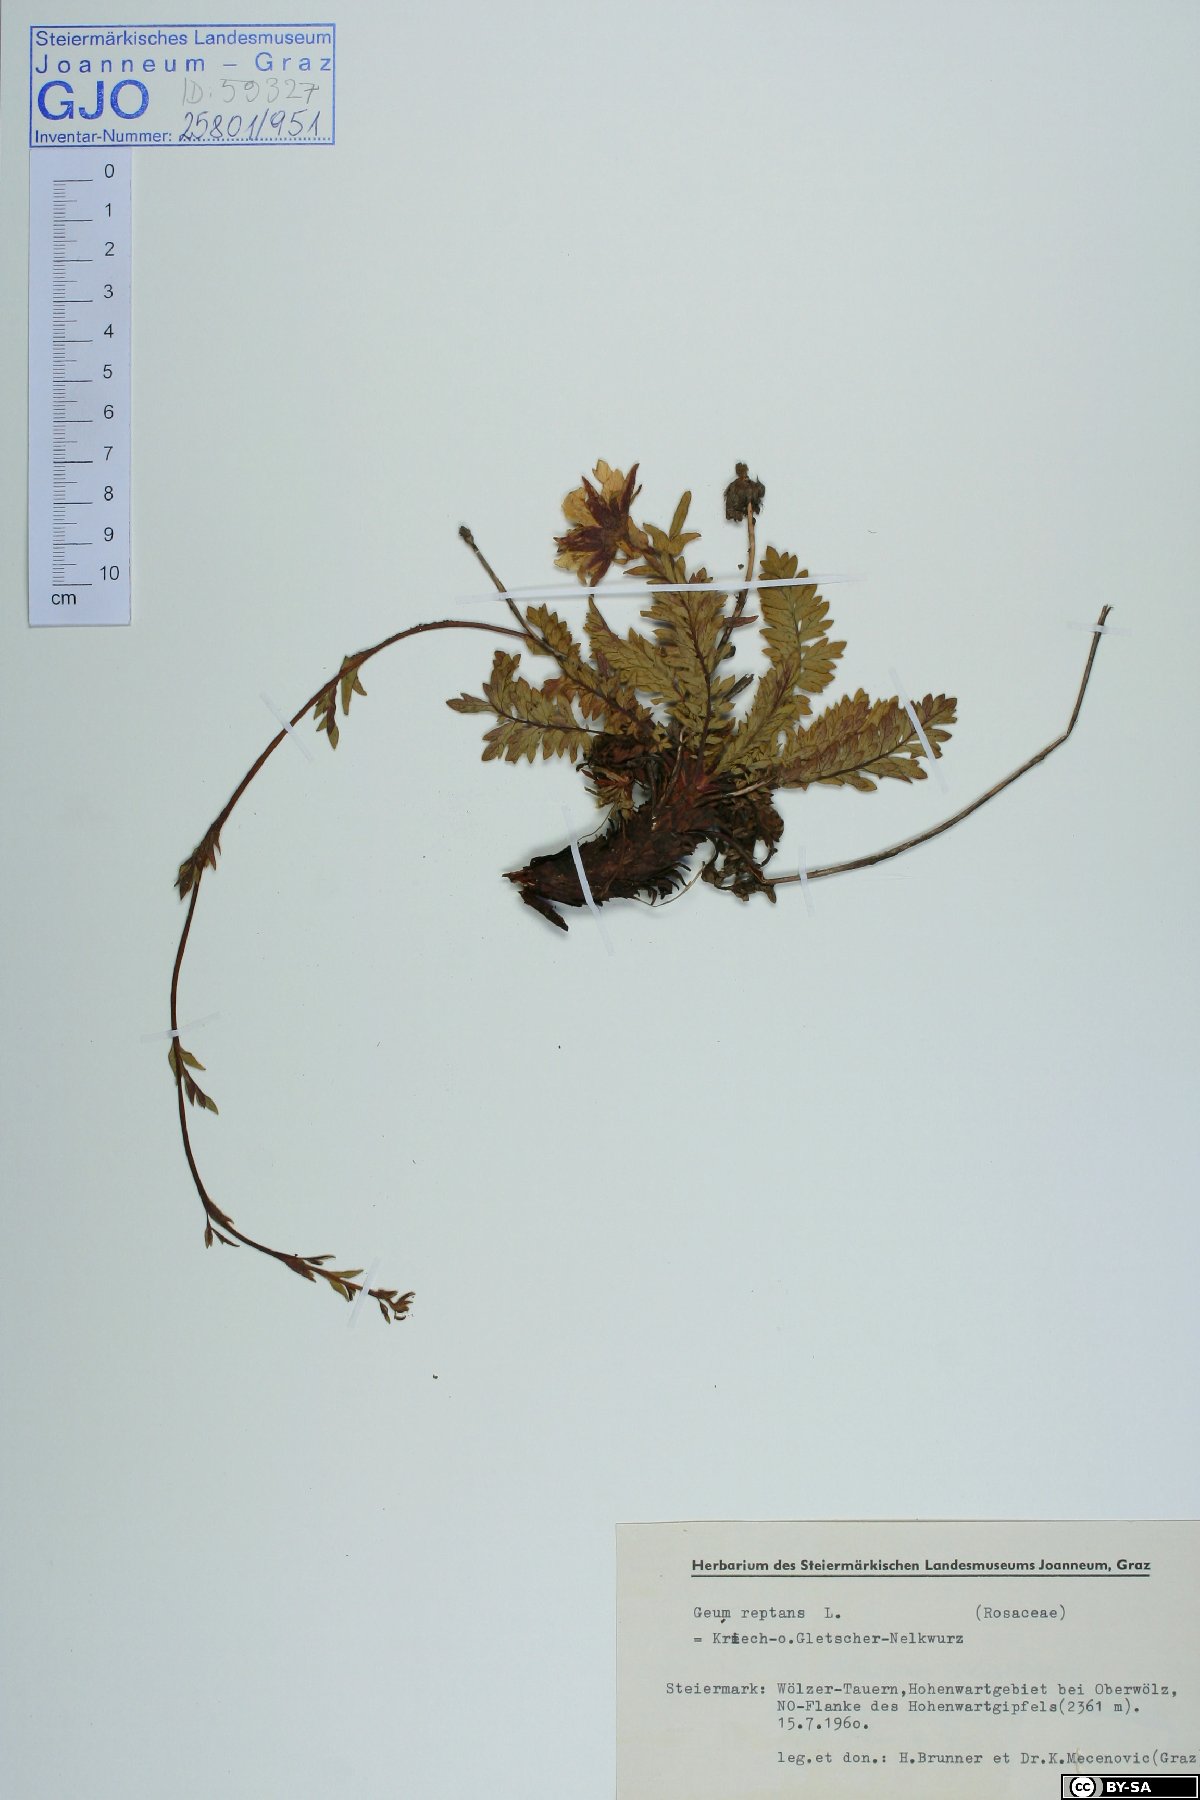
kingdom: Plantae
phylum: Tracheophyta
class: Magnoliopsida
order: Rosales
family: Rosaceae
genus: Geum
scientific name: Geum reptans
